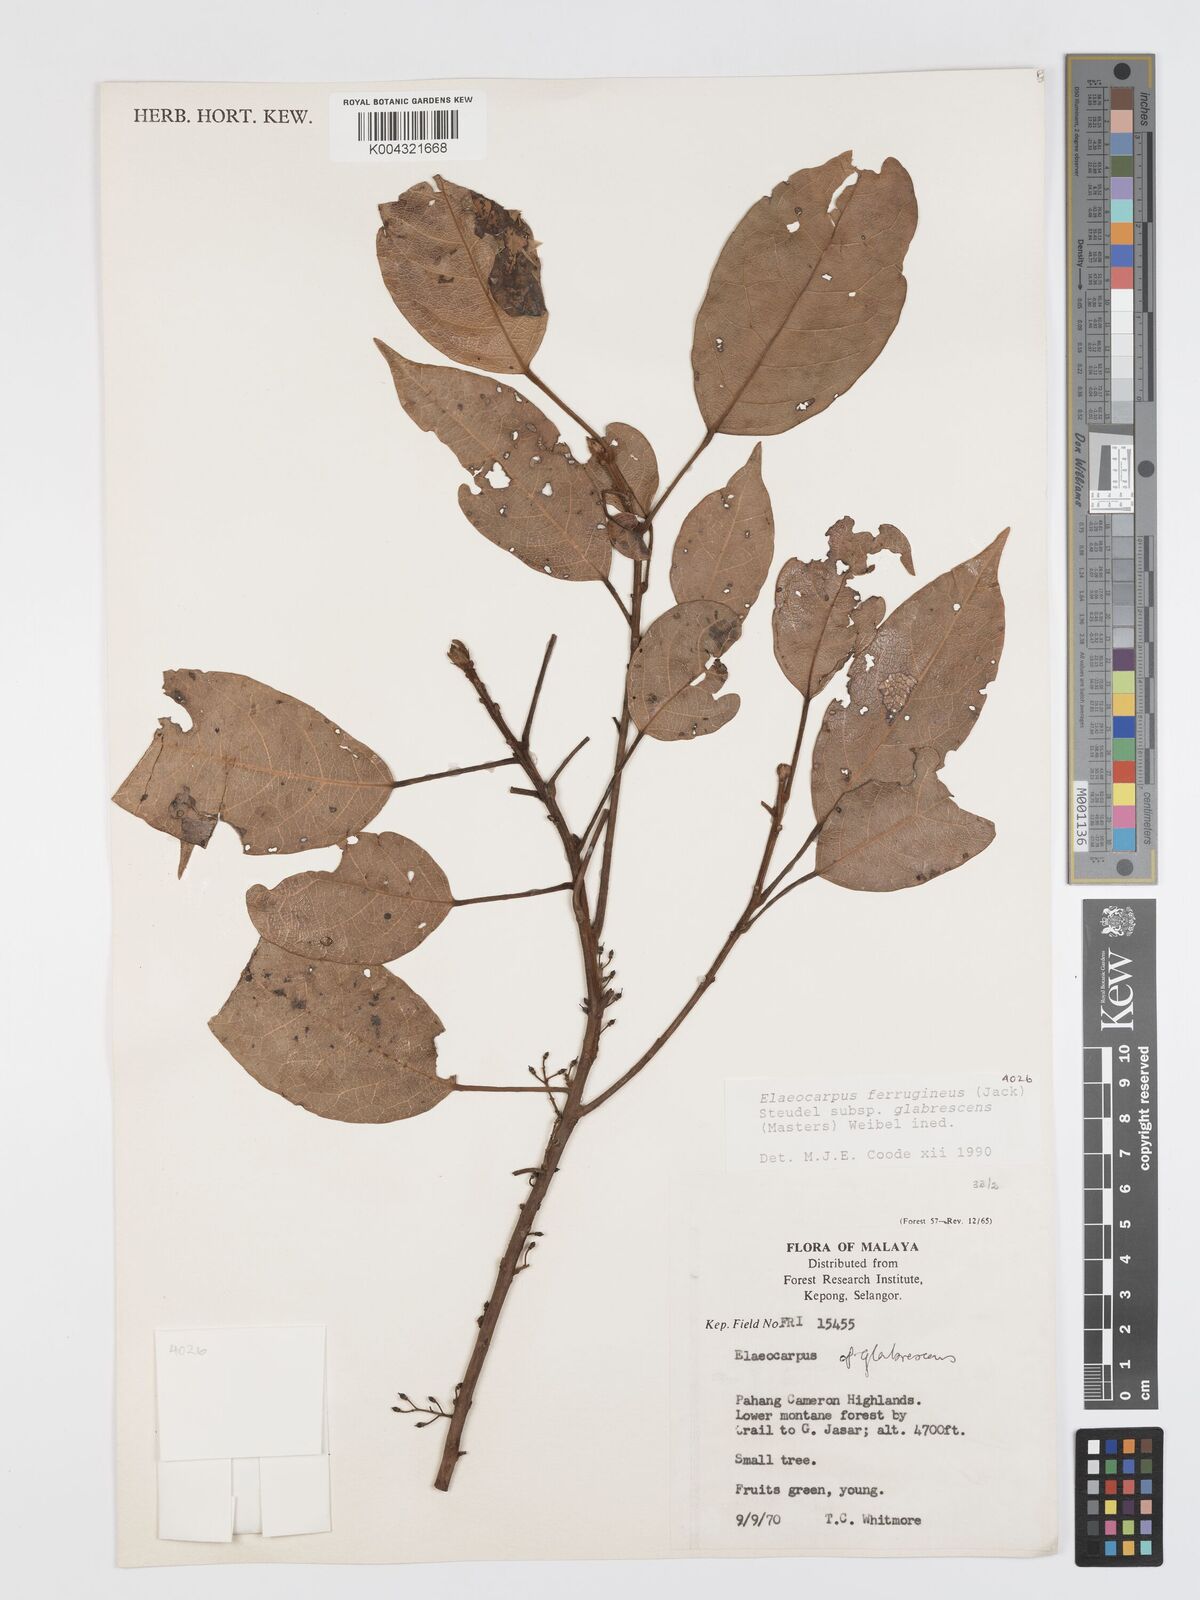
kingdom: Plantae
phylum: Tracheophyta
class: Magnoliopsida
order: Oxalidales
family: Elaeocarpaceae
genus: Elaeocarpus
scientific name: Elaeocarpus ferrugineus
